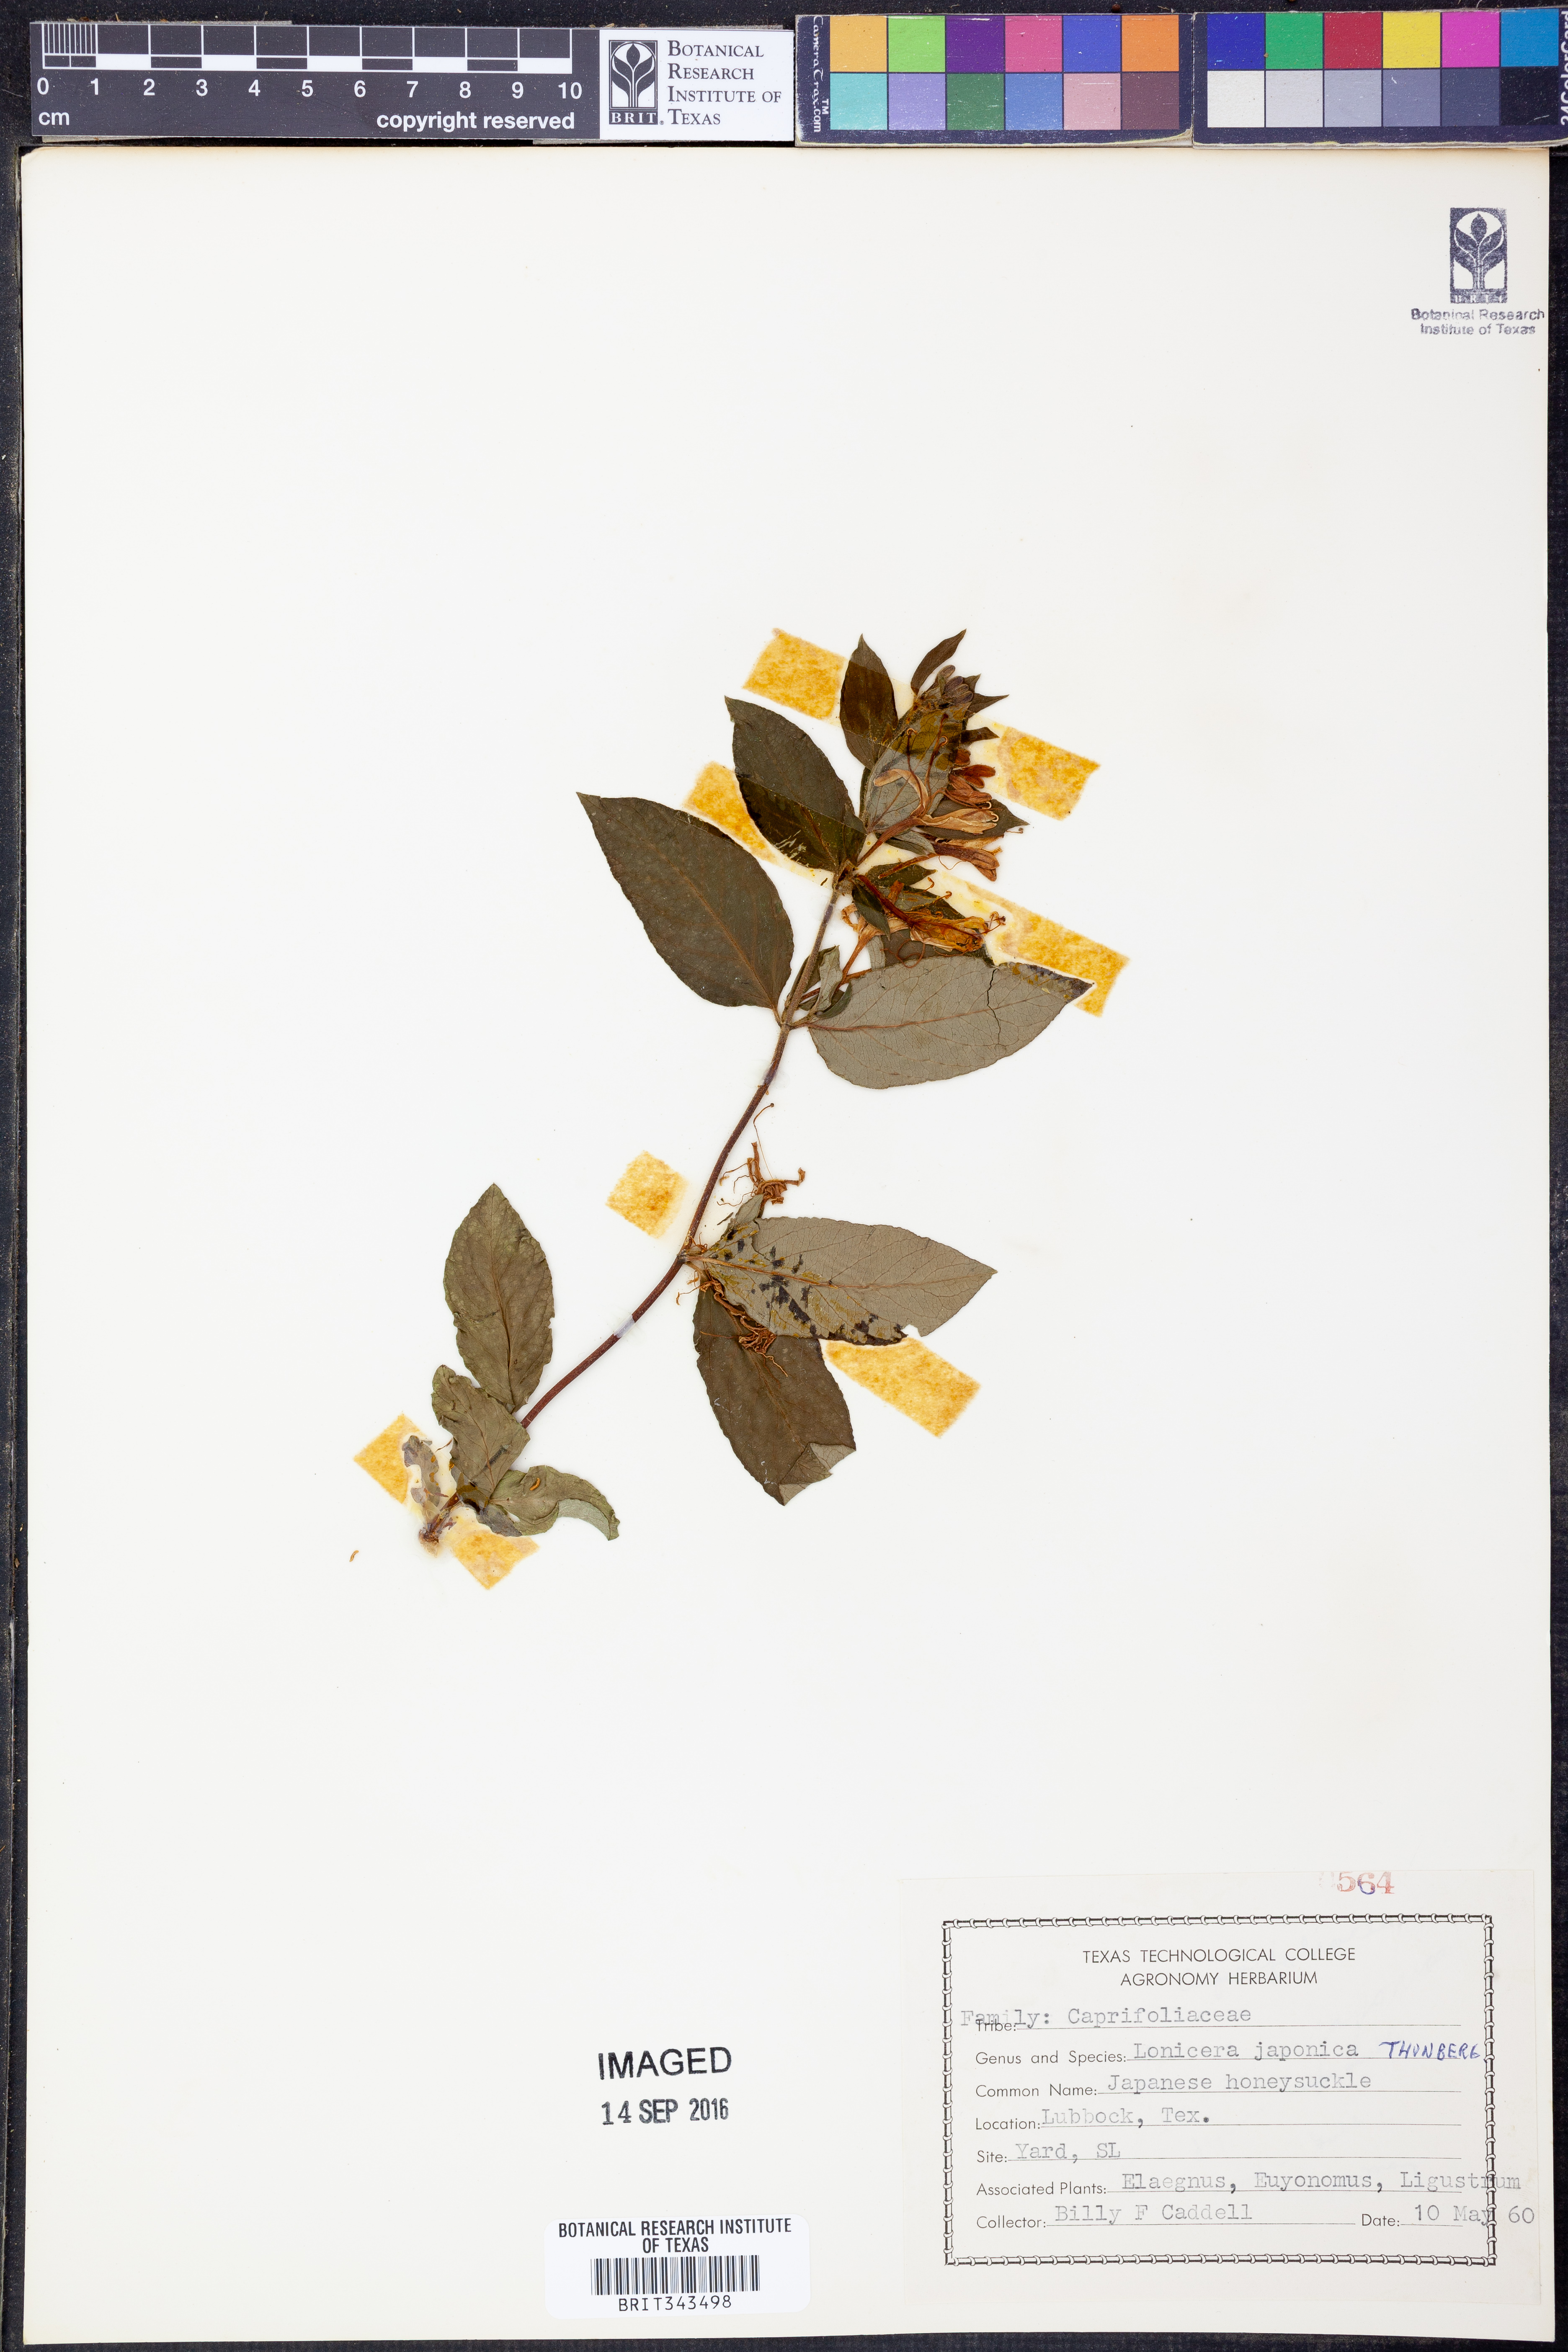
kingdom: Plantae
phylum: Tracheophyta
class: Magnoliopsida
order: Dipsacales
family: Caprifoliaceae
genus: Lonicera
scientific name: Lonicera japonica
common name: Japanese honeysuckle
